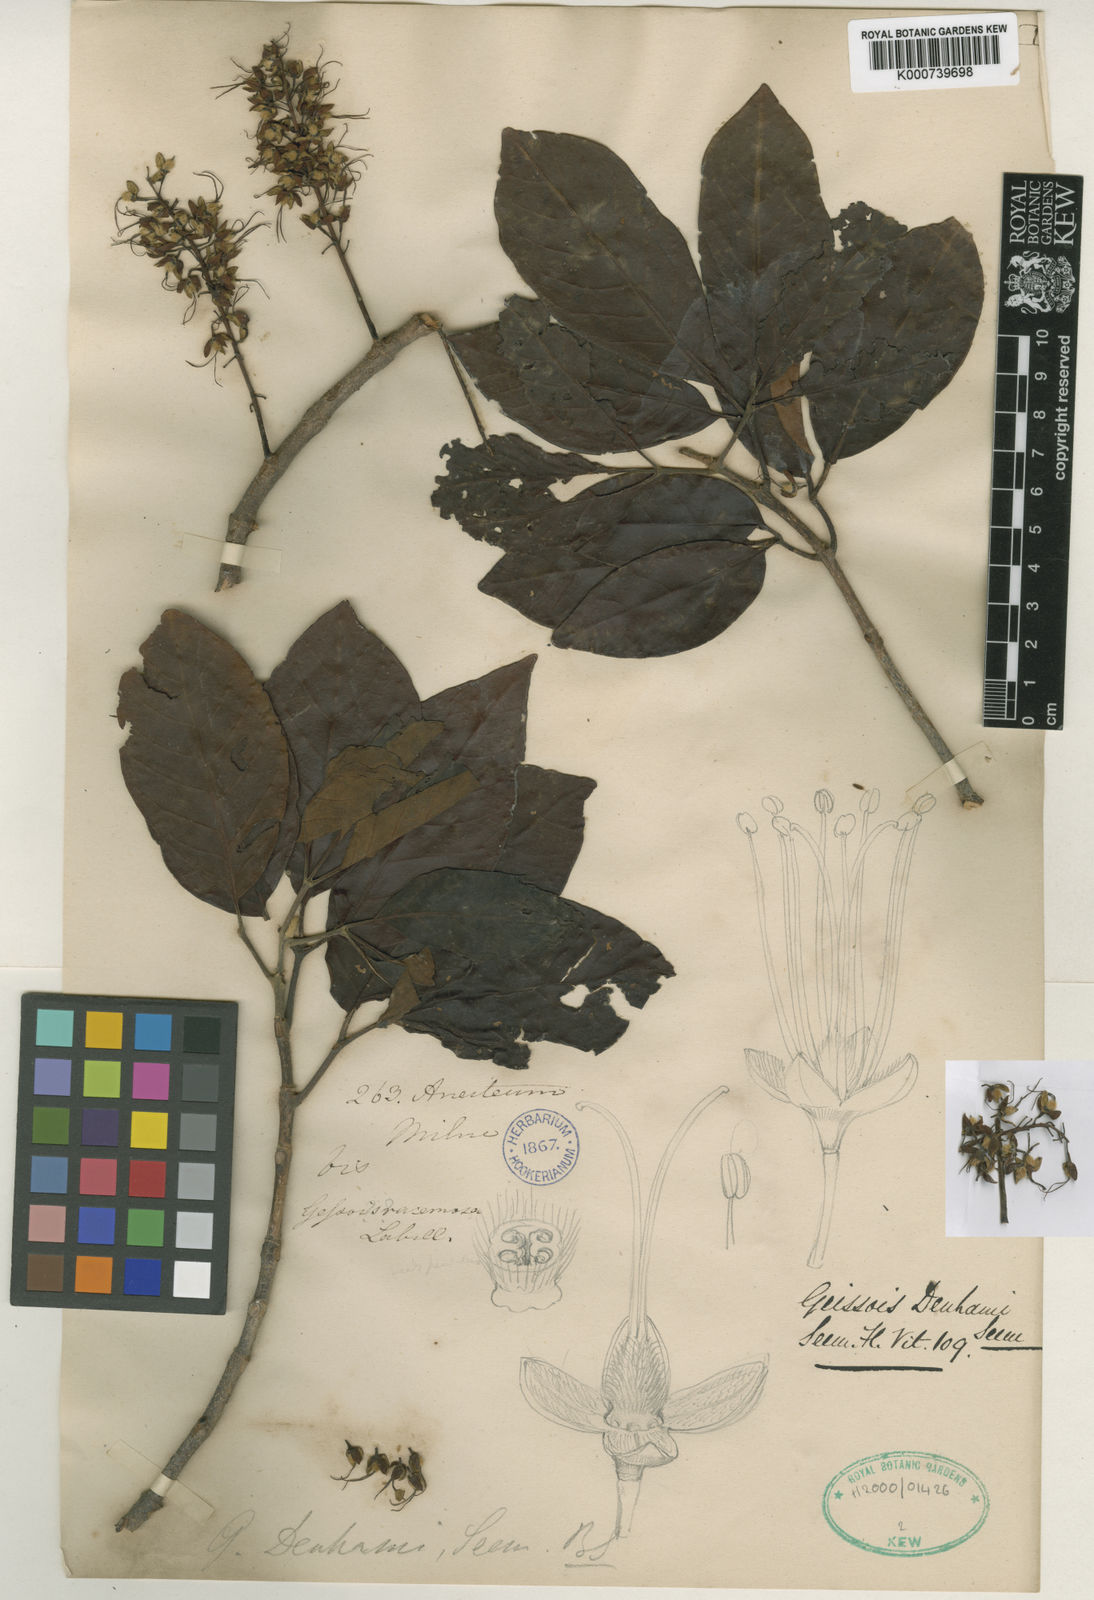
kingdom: Plantae
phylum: Tracheophyta
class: Magnoliopsida
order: Oxalidales
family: Cunoniaceae
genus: Geissois
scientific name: Geissois denhamii
